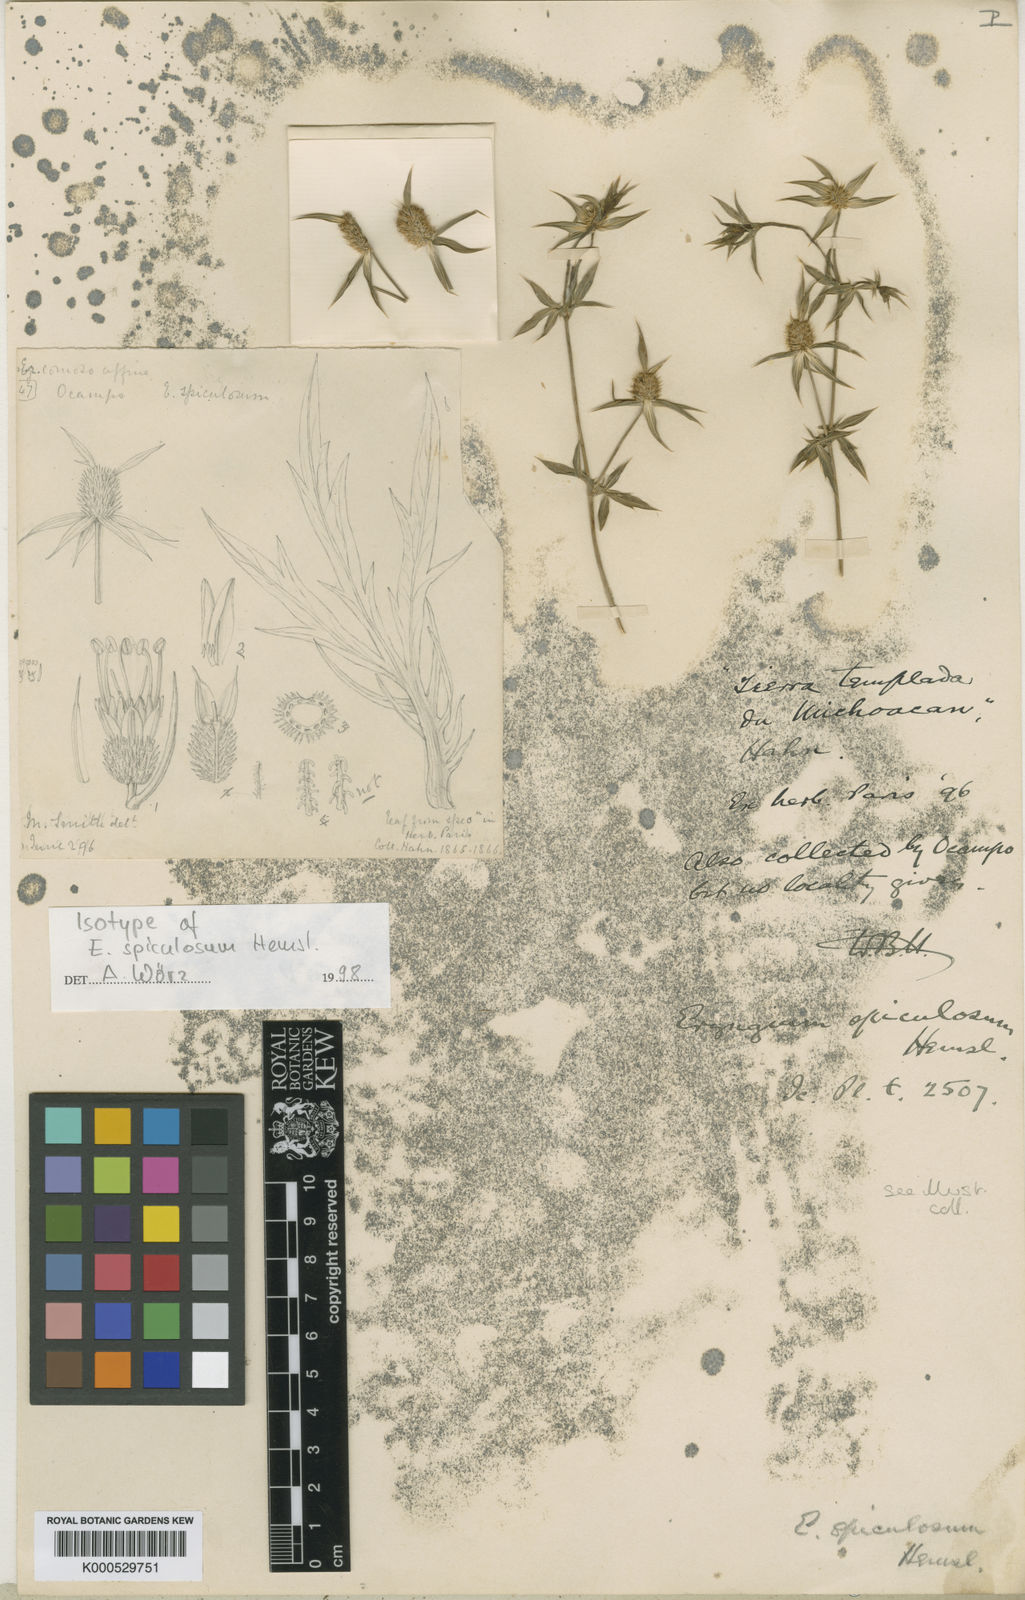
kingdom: Plantae
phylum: Tracheophyta
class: Magnoliopsida
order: Apiales
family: Apiaceae
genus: Eryngium
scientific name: Eryngium haenkei
